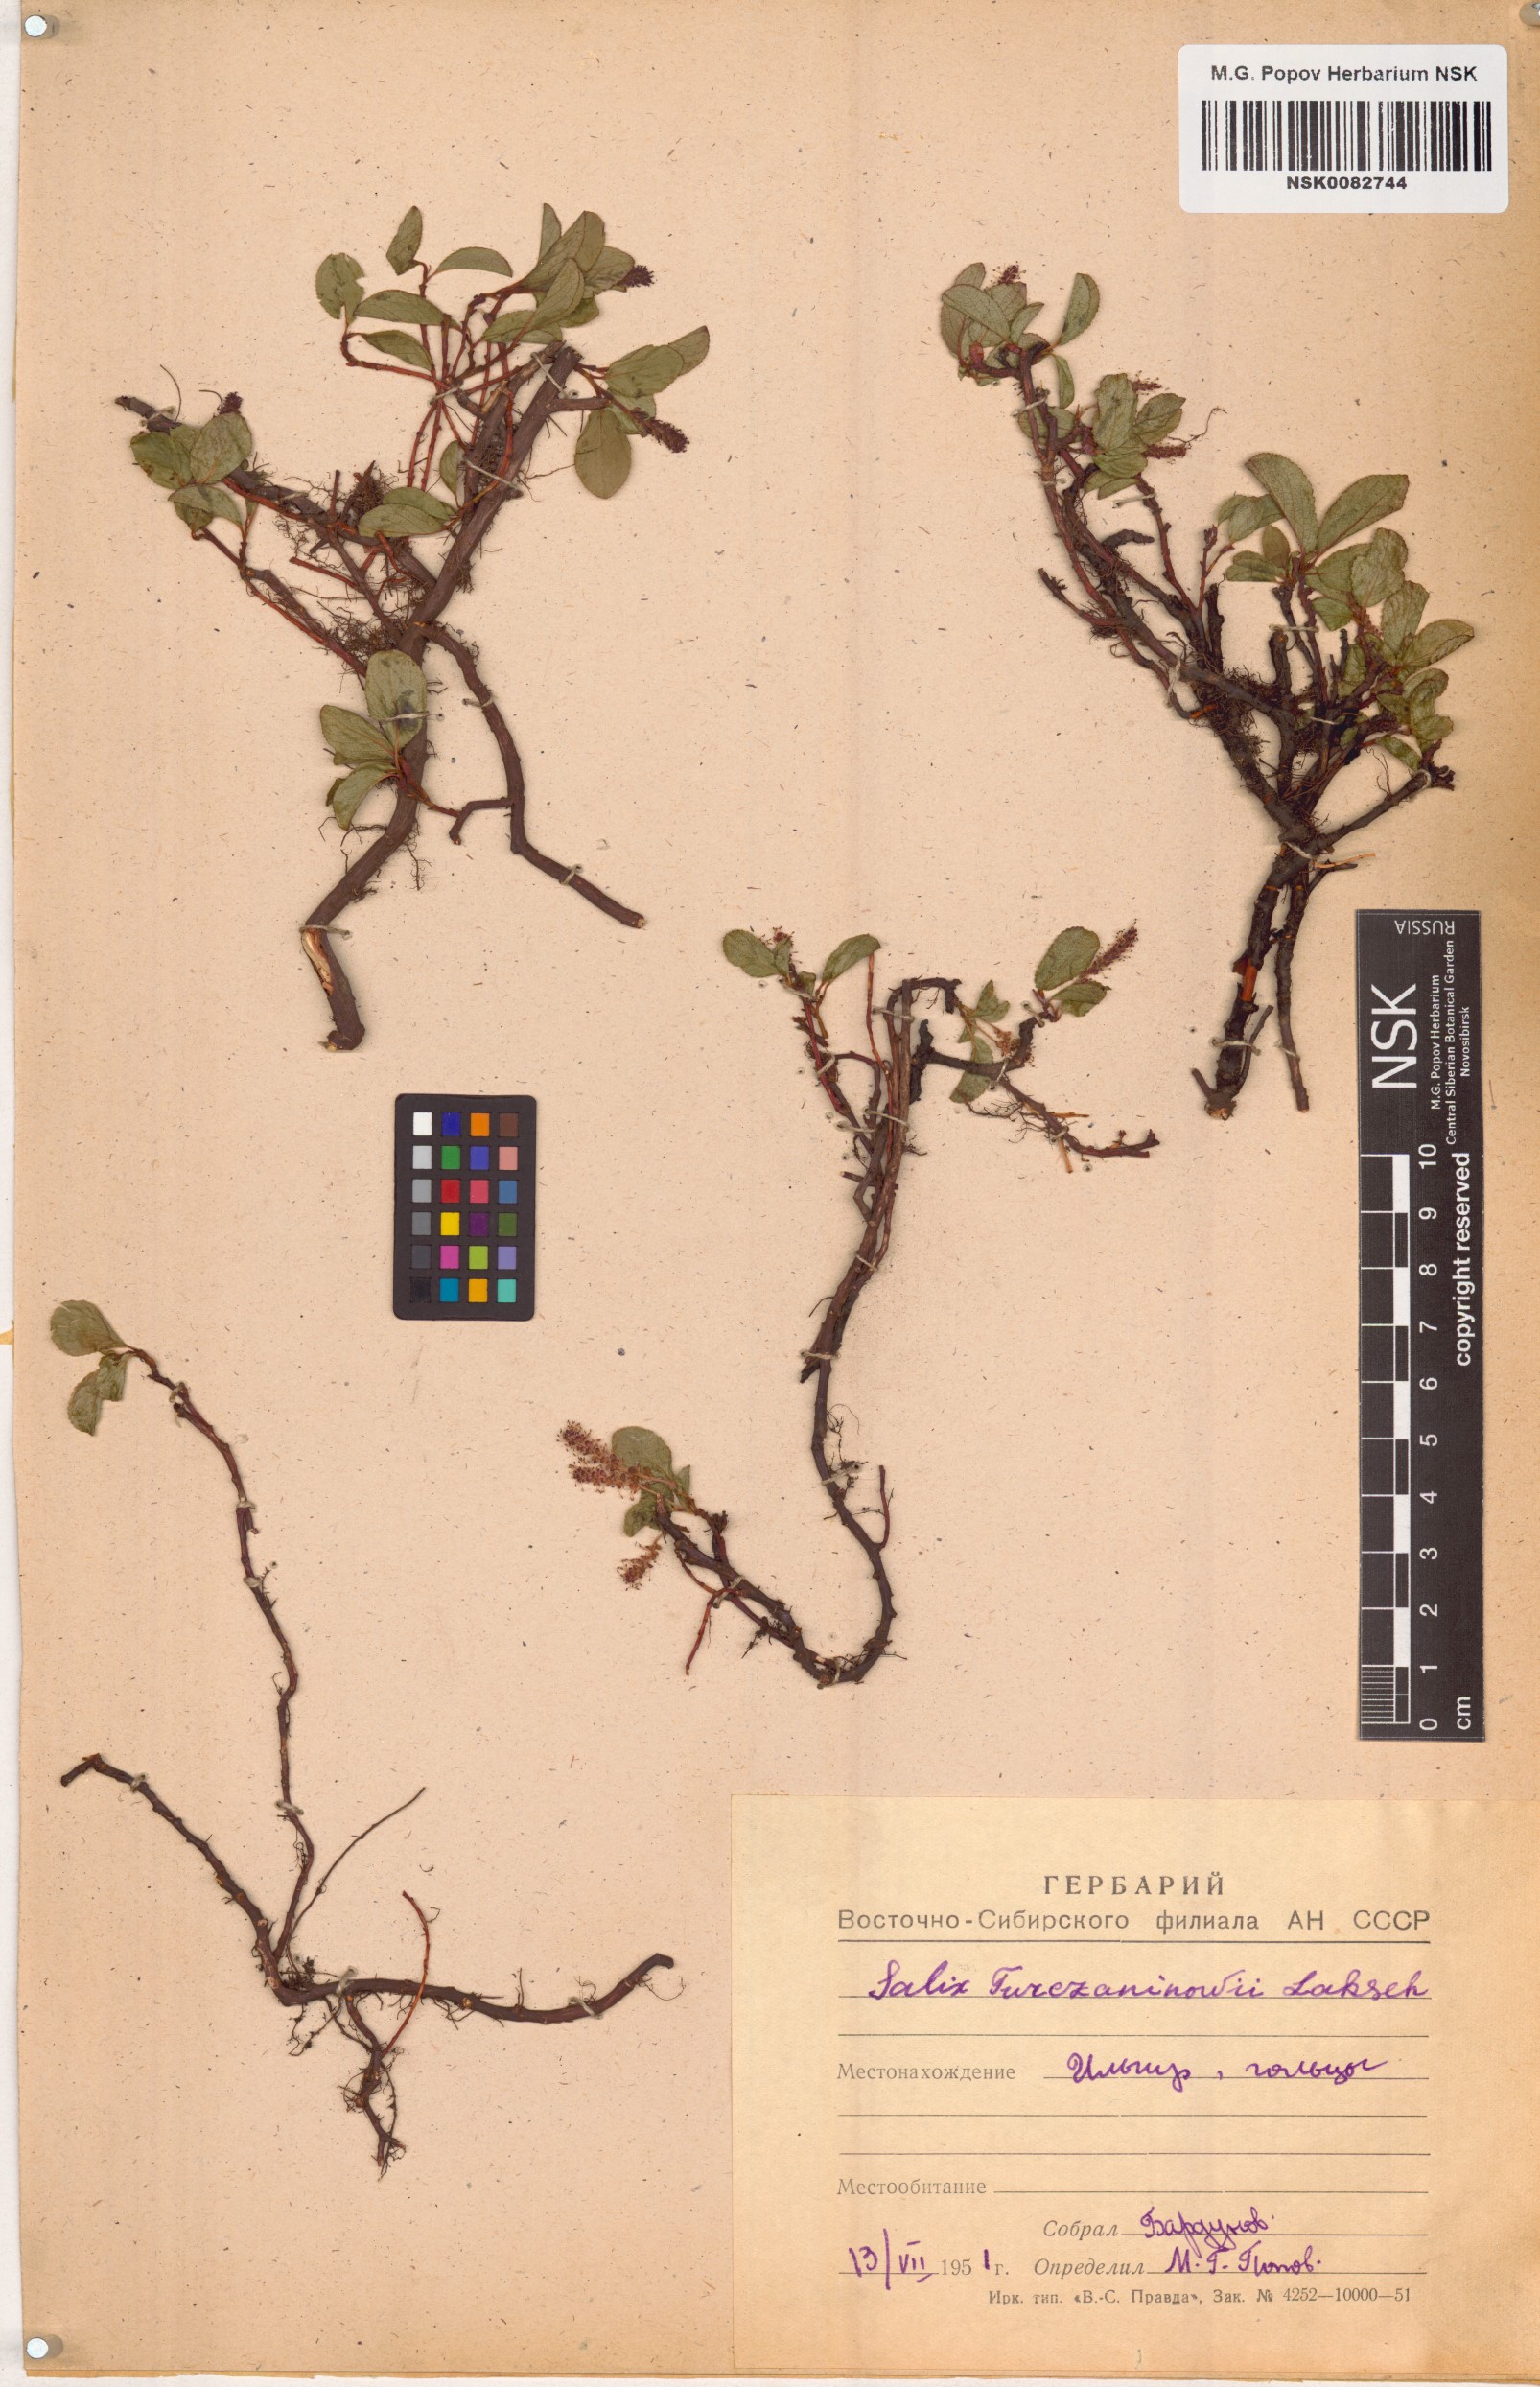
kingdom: Plantae
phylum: Tracheophyta
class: Magnoliopsida
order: Malpighiales
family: Salicaceae
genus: Salix
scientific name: Salix turczaninowii
